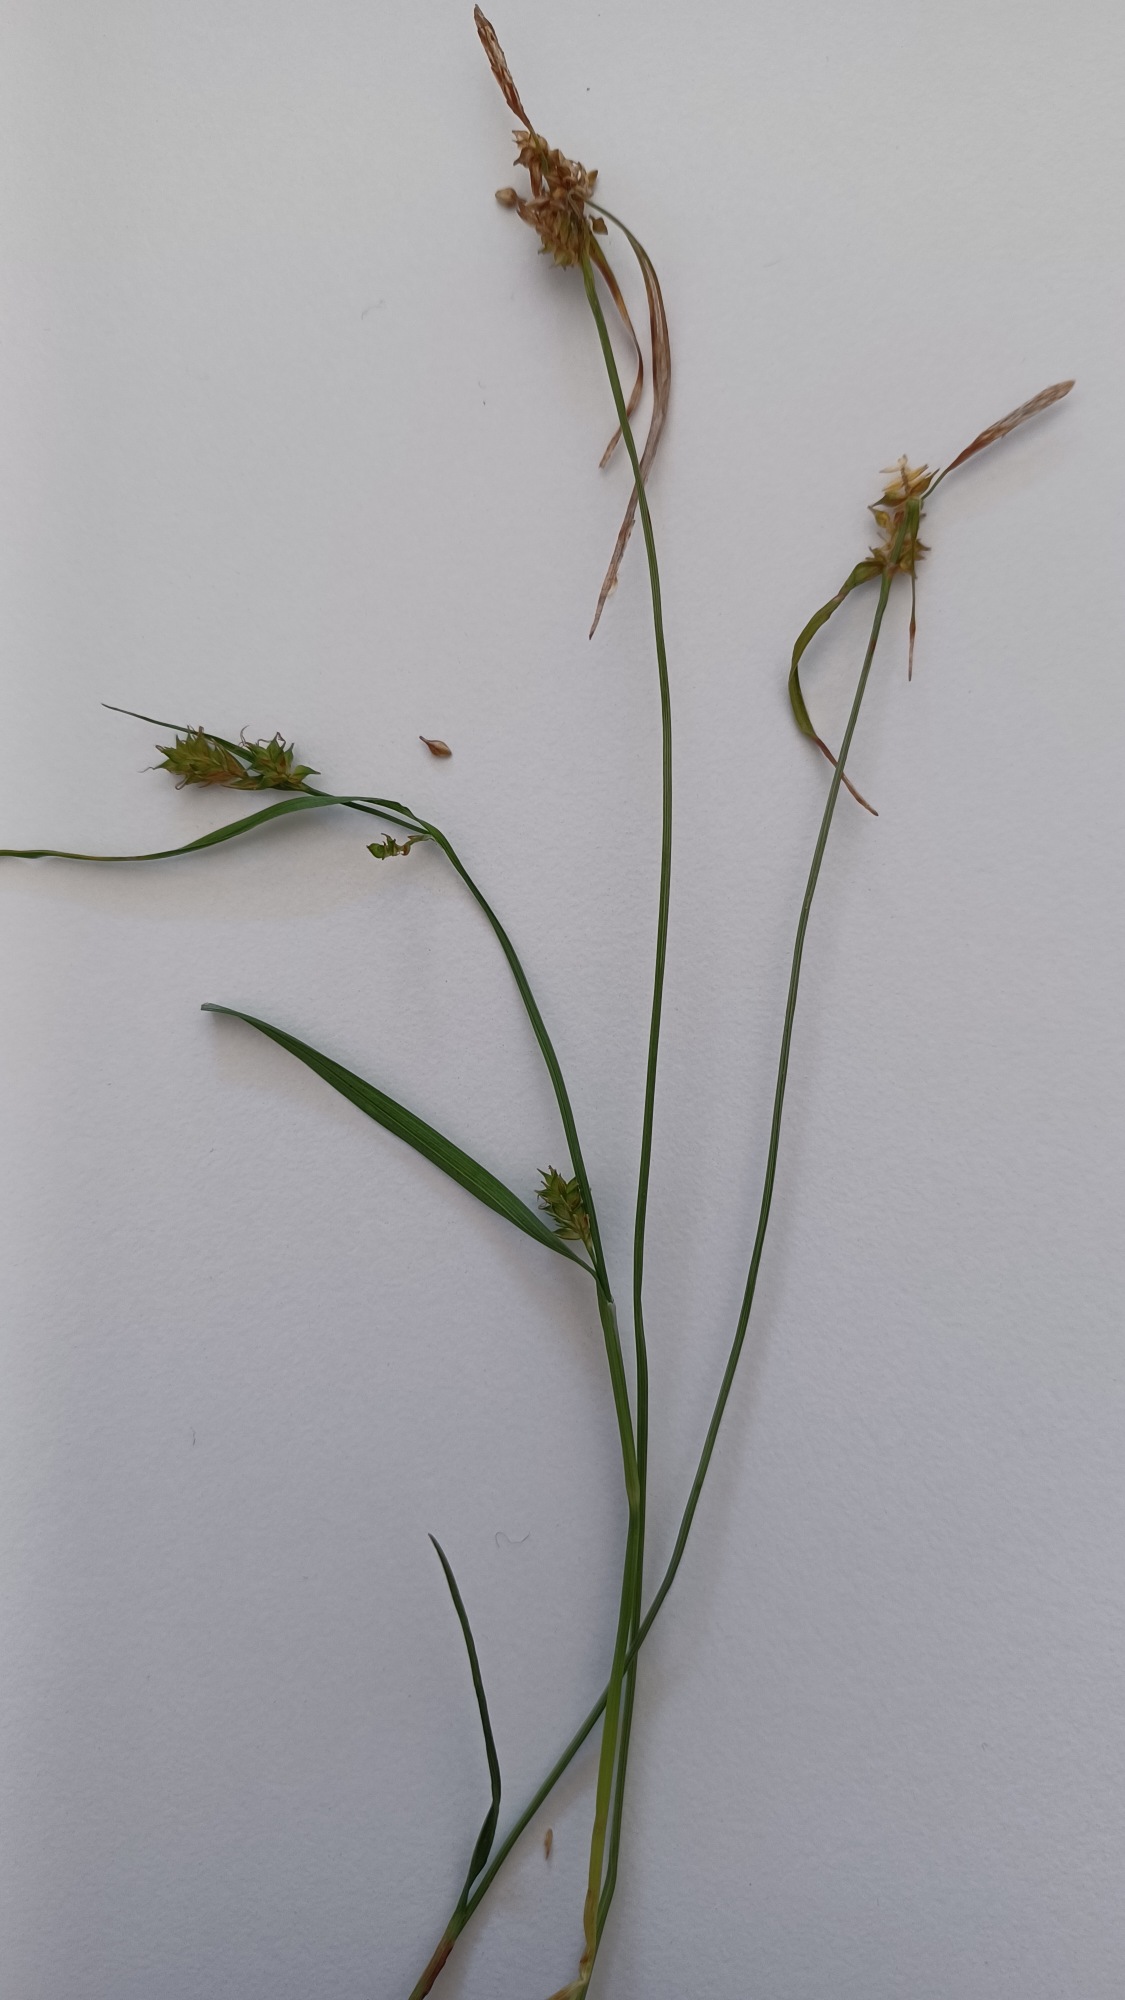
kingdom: Plantae
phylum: Tracheophyta
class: Liliopsida
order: Poales
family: Cyperaceae
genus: Carex
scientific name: Carex demissa
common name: Grøn star
